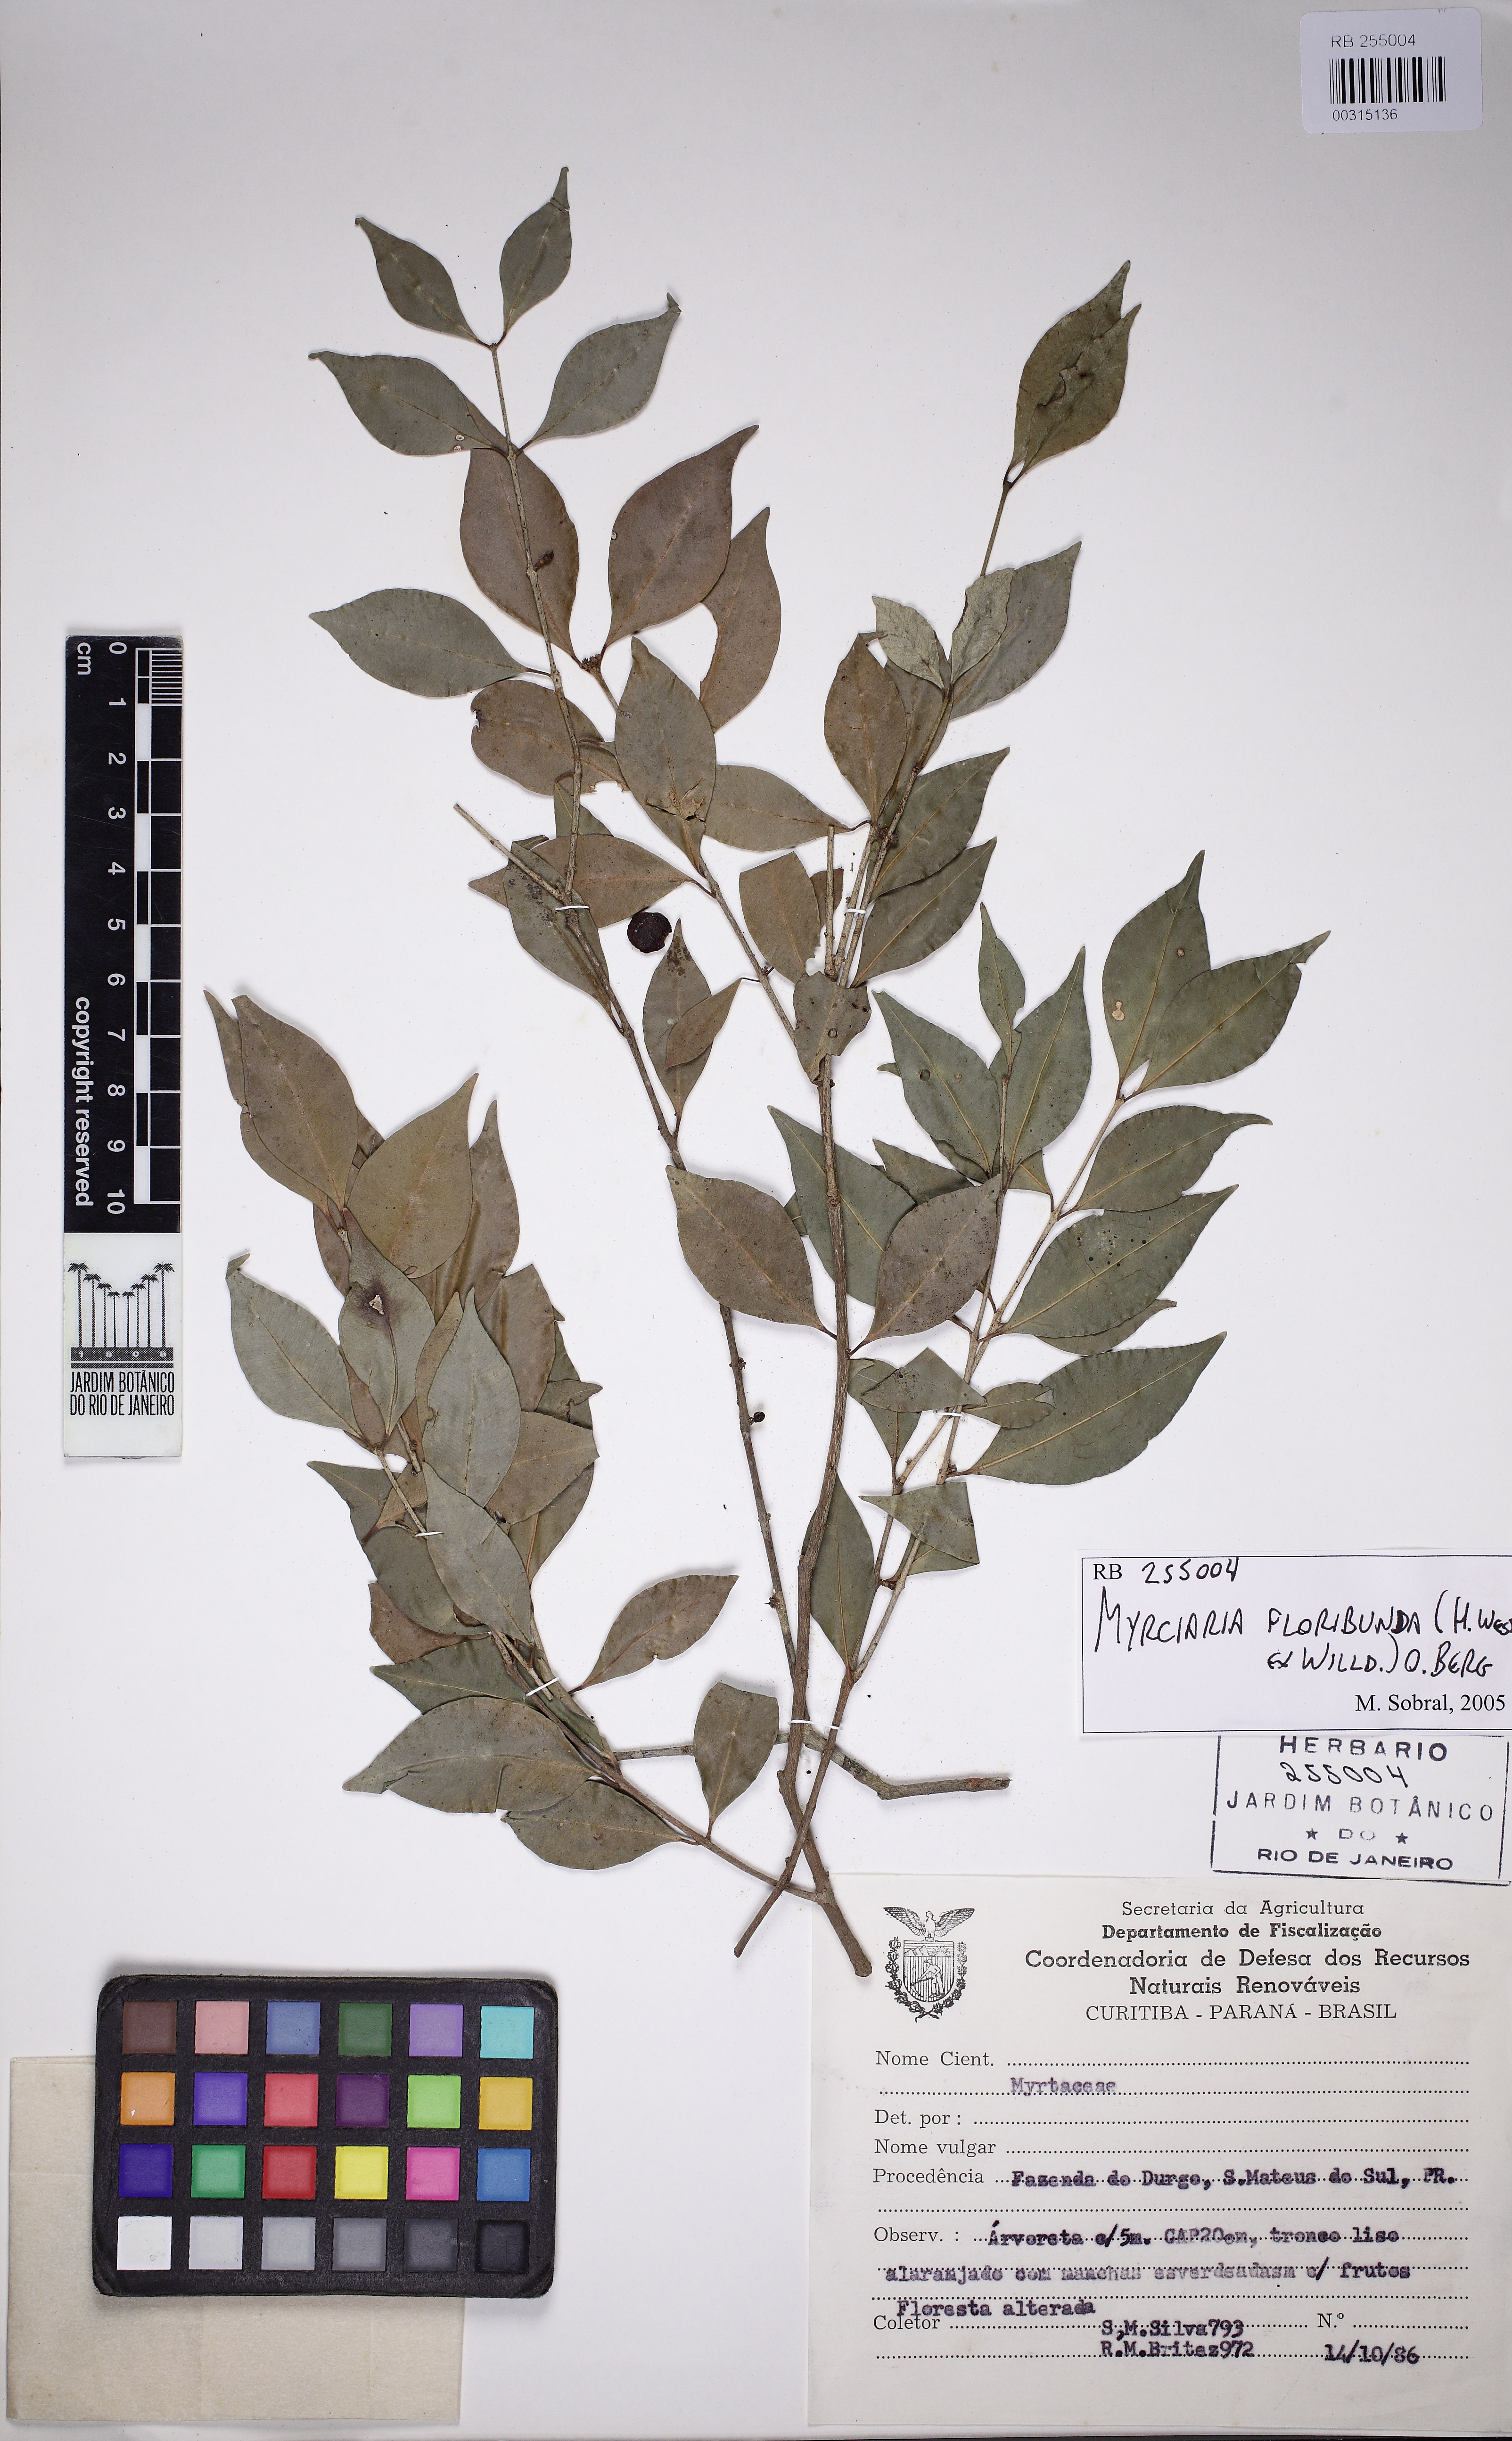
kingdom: Plantae
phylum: Tracheophyta
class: Magnoliopsida
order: Myrtales
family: Myrtaceae
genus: Myrciaria
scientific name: Myrciaria floribunda
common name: Guavaberry
